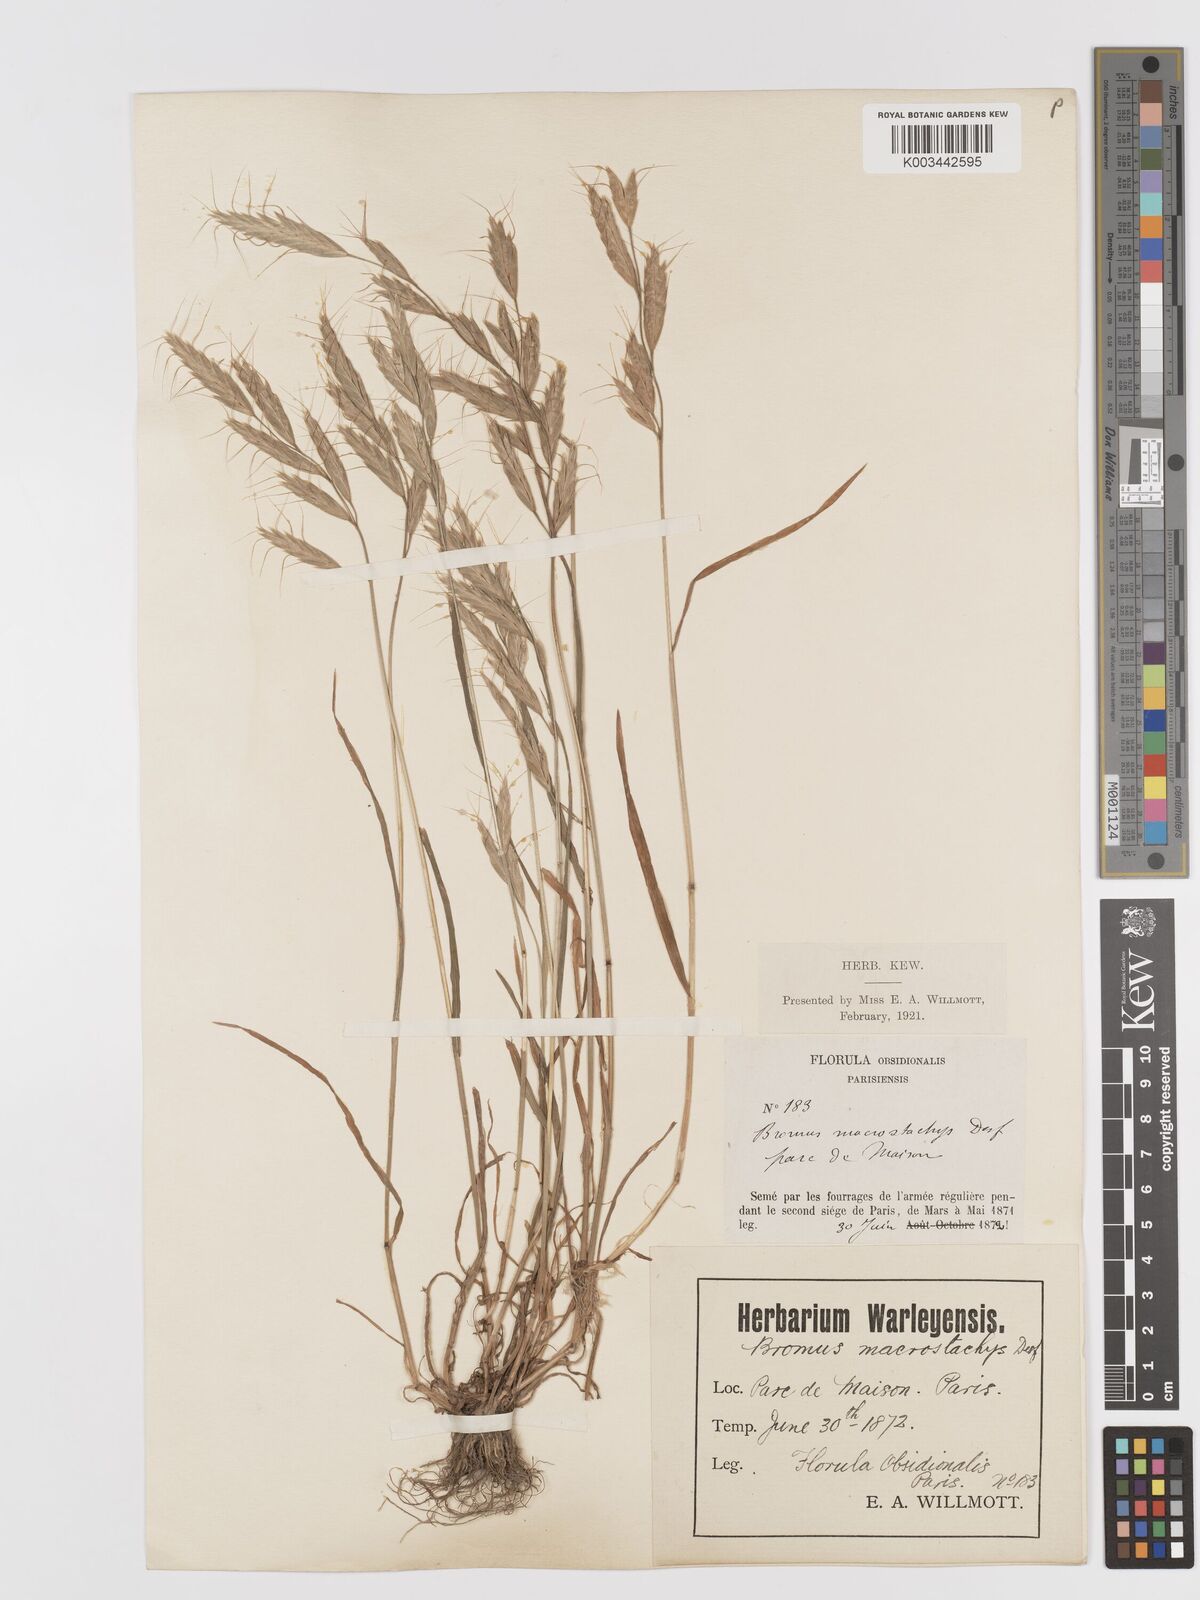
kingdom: Plantae
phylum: Tracheophyta
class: Liliopsida
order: Poales
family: Poaceae
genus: Bromus
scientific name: Bromus lanceolatus
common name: Mediterranean brome
